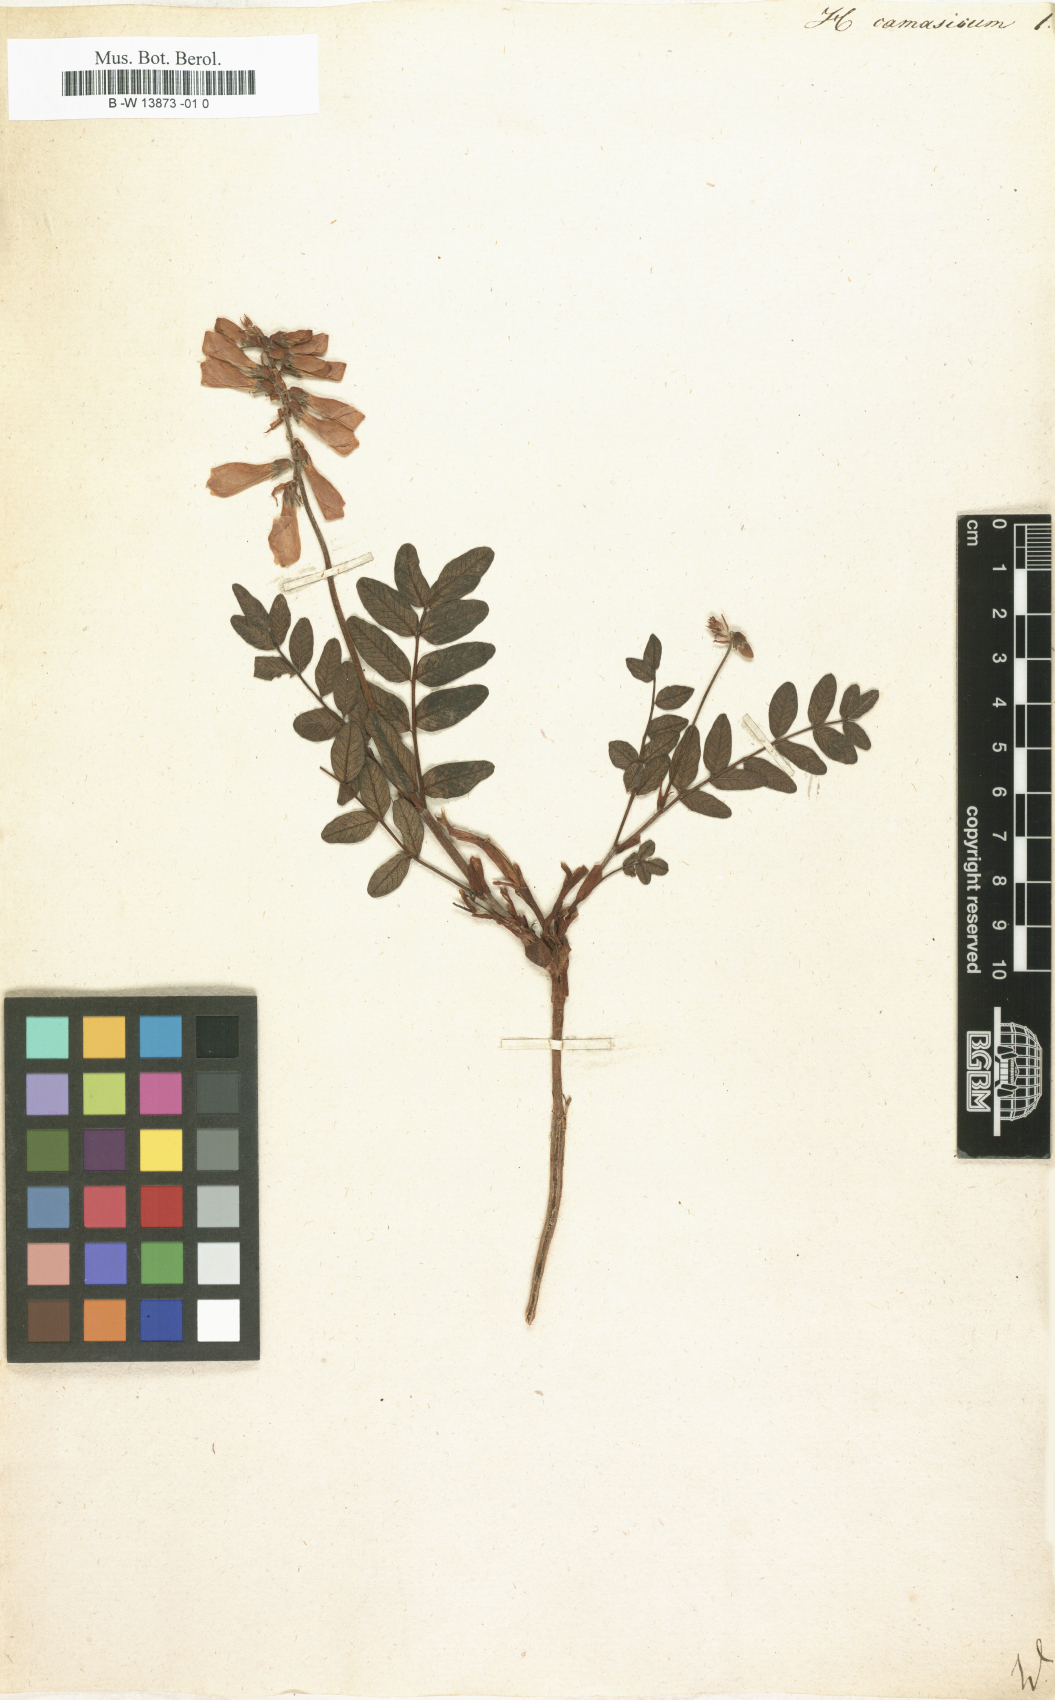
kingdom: Plantae
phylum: Tracheophyta
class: Magnoliopsida
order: Fabales
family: Fabaceae
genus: Hedysarum
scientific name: Hedysarum caucasicum
